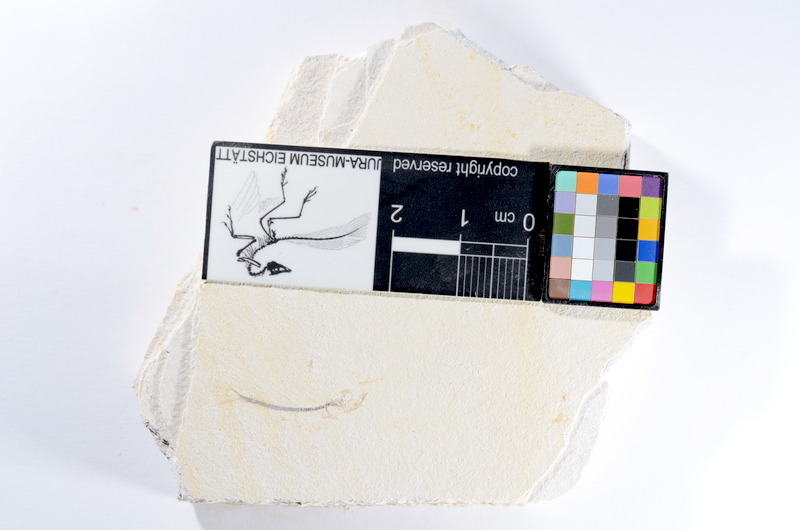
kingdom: Animalia
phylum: Chordata
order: Salmoniformes
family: Orthogonikleithridae
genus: Orthogonikleithrus
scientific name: Orthogonikleithrus hoelli
